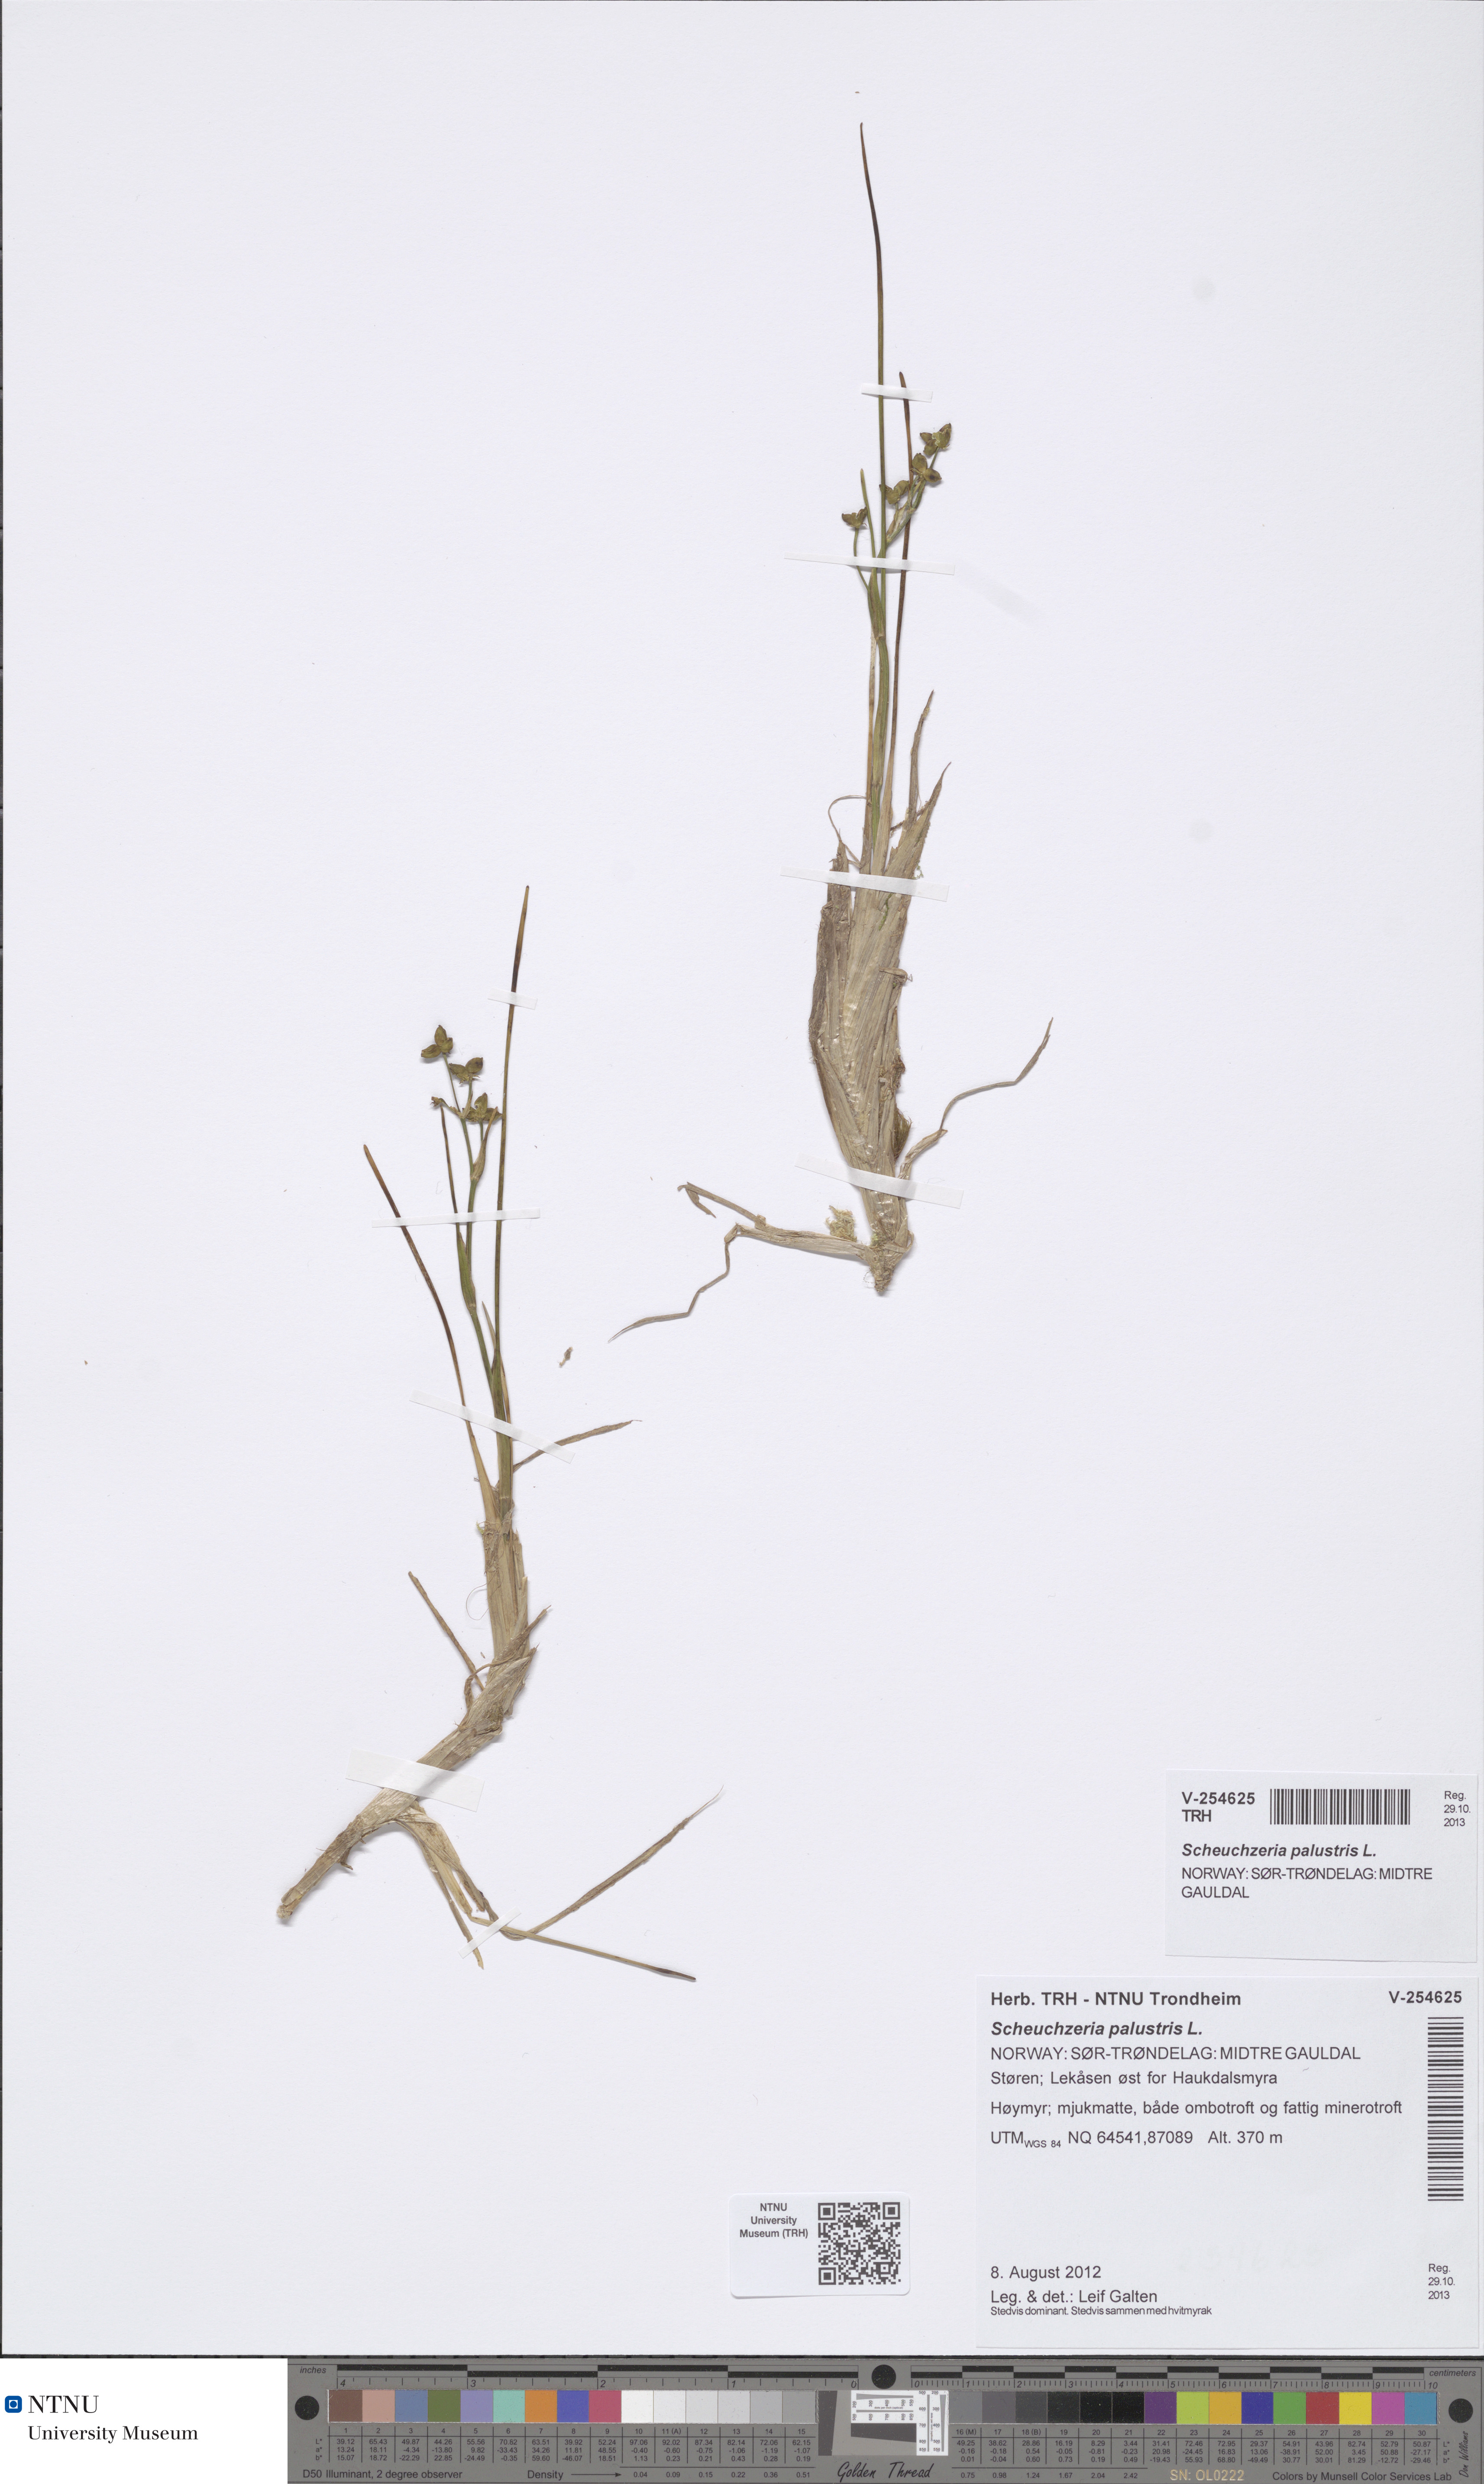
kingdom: Plantae
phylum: Tracheophyta
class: Liliopsida
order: Alismatales
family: Scheuchzeriaceae
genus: Scheuchzeria
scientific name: Scheuchzeria palustris
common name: Rannoch-rush
